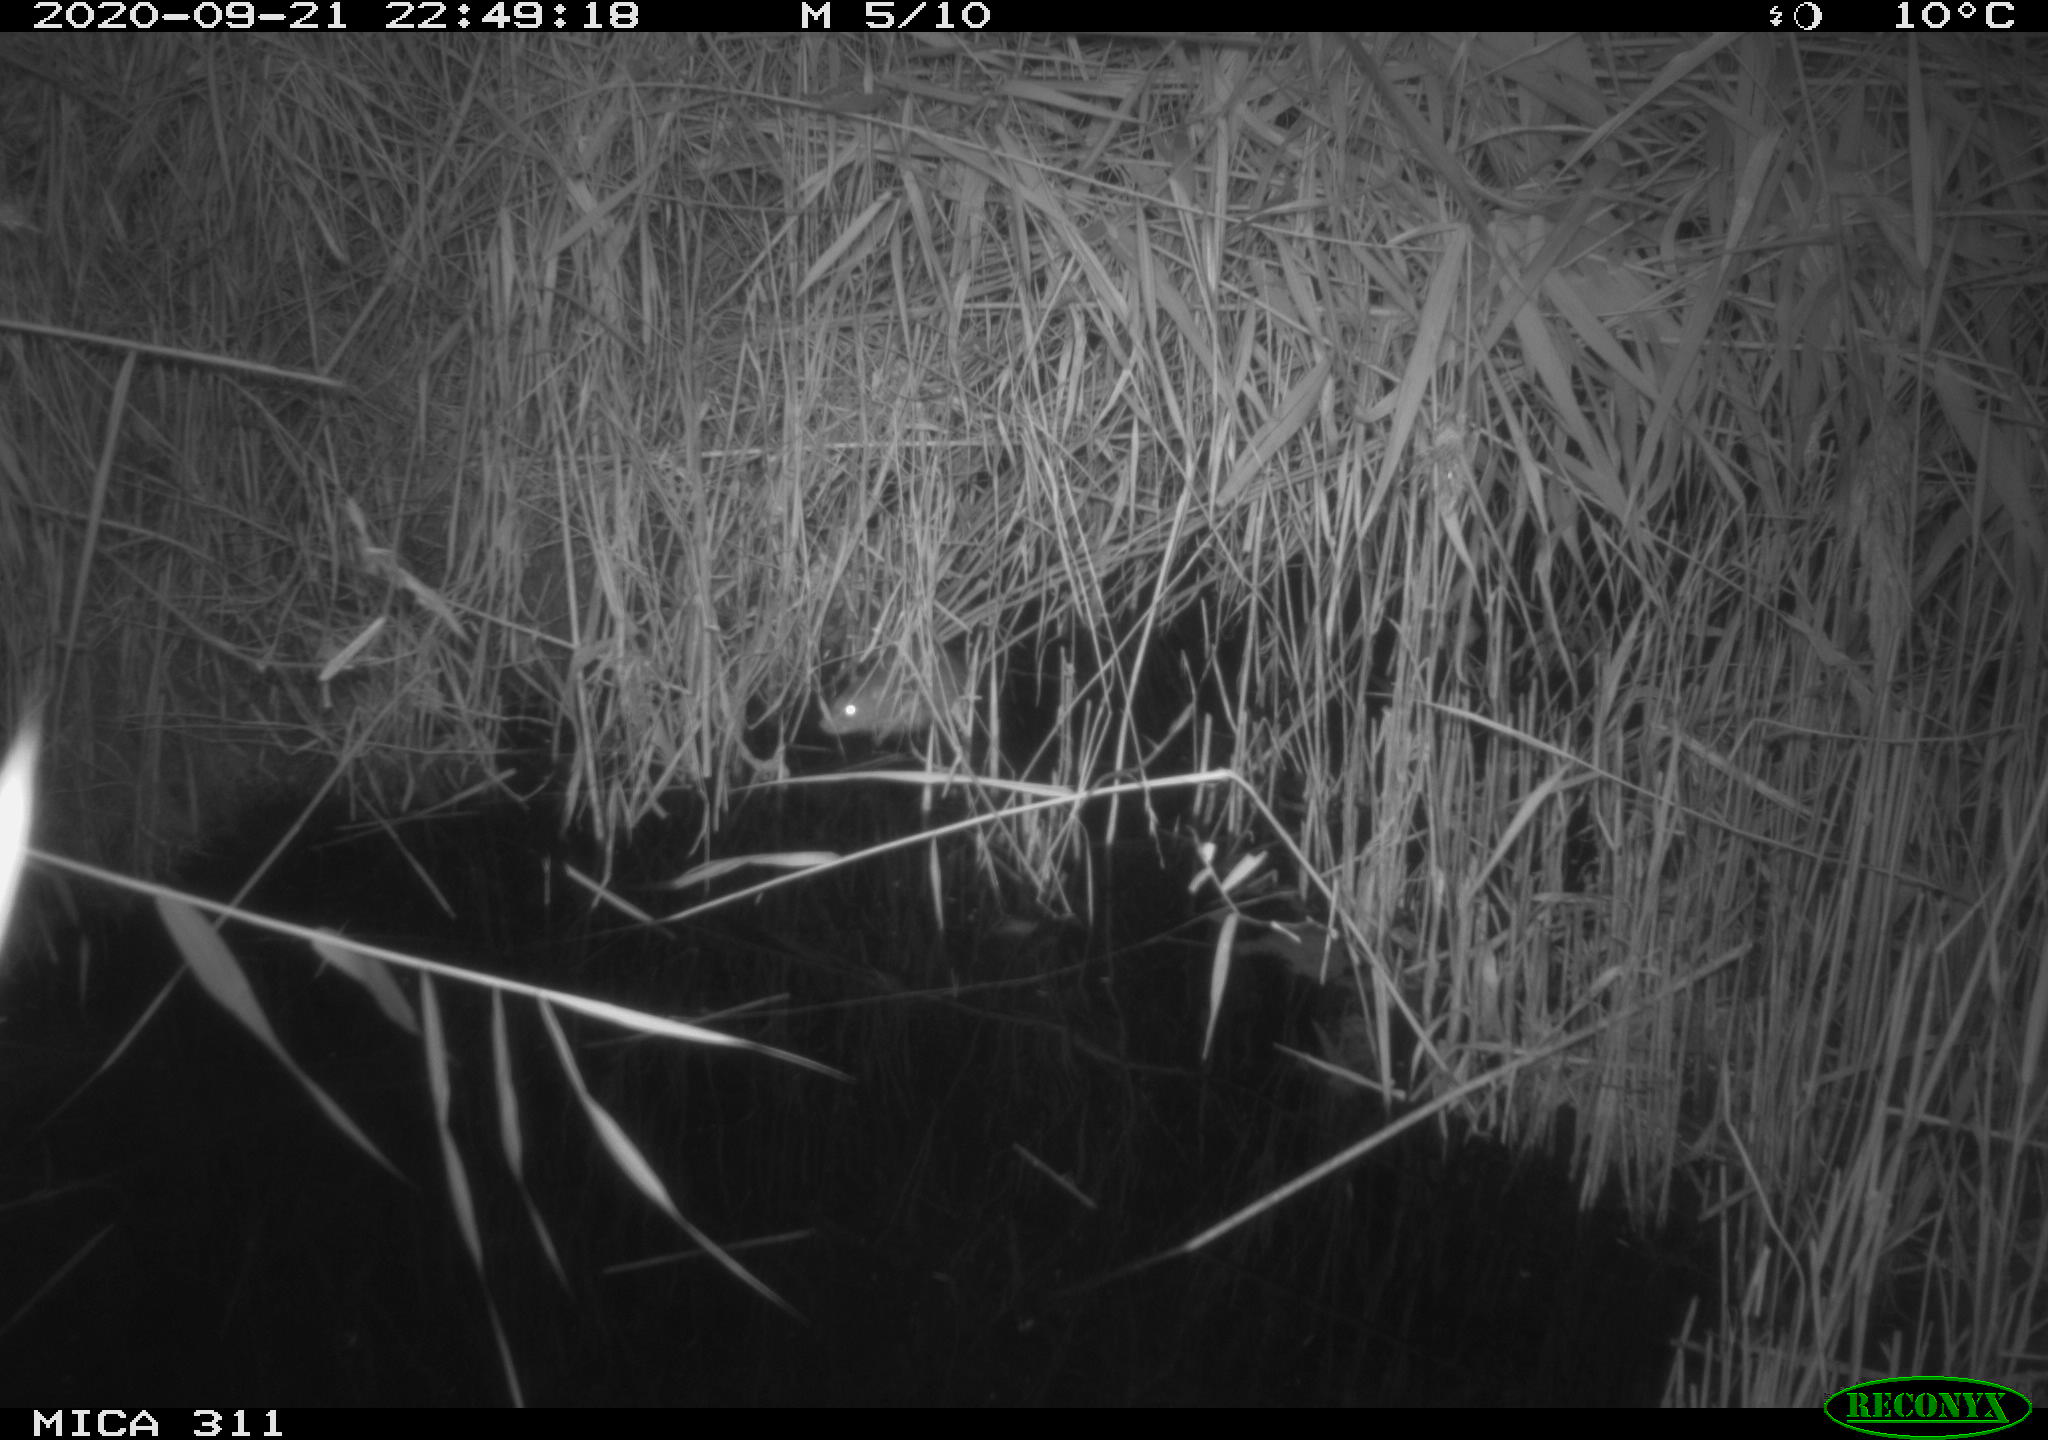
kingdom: Animalia
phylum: Chordata
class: Mammalia
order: Rodentia
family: Muridae
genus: Rattus
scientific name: Rattus norvegicus
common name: Brown rat
